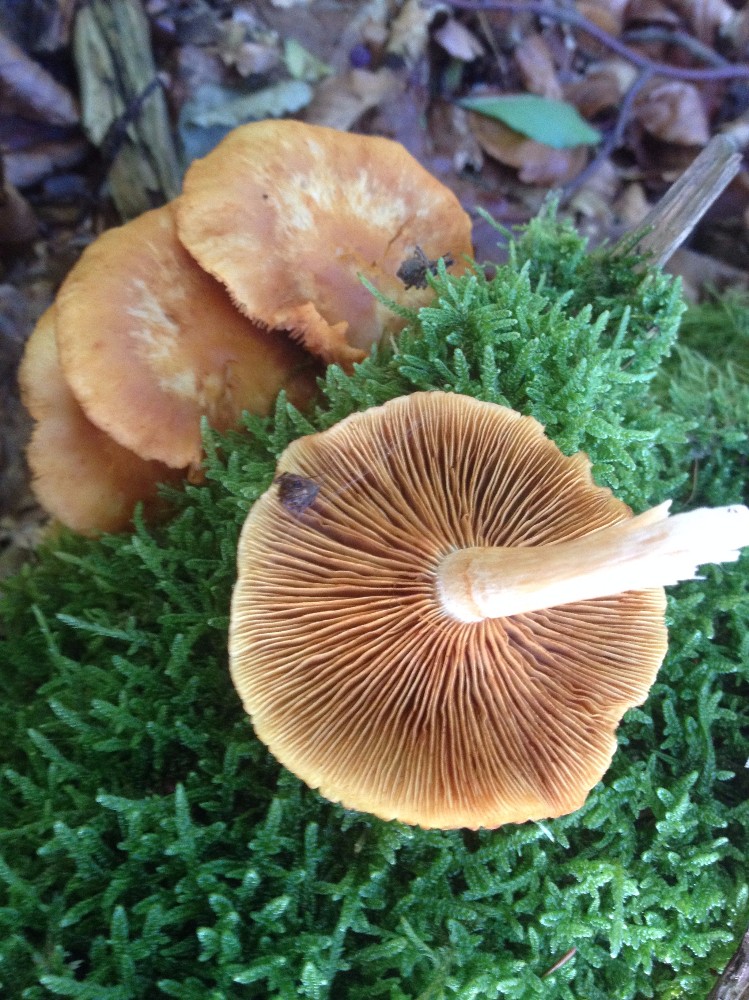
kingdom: Fungi
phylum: Basidiomycota
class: Agaricomycetes
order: Agaricales
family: Hymenogastraceae
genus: Galerina
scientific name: Galerina marginata
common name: randbæltet hjelmhat
